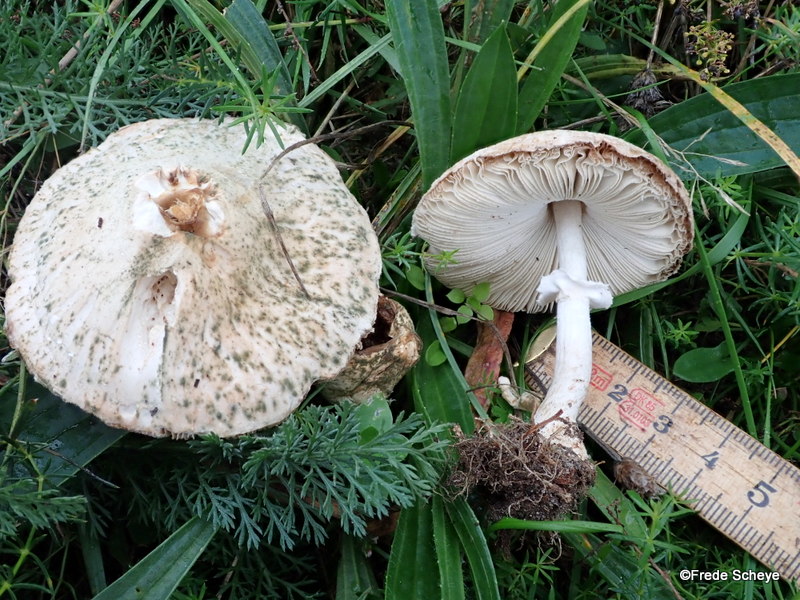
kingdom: Fungi
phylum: Basidiomycota
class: Agaricomycetes
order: Agaricales
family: Agaricaceae
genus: Macrolepiota
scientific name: Macrolepiota excoriata
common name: mark-kæmpeparasolhat
